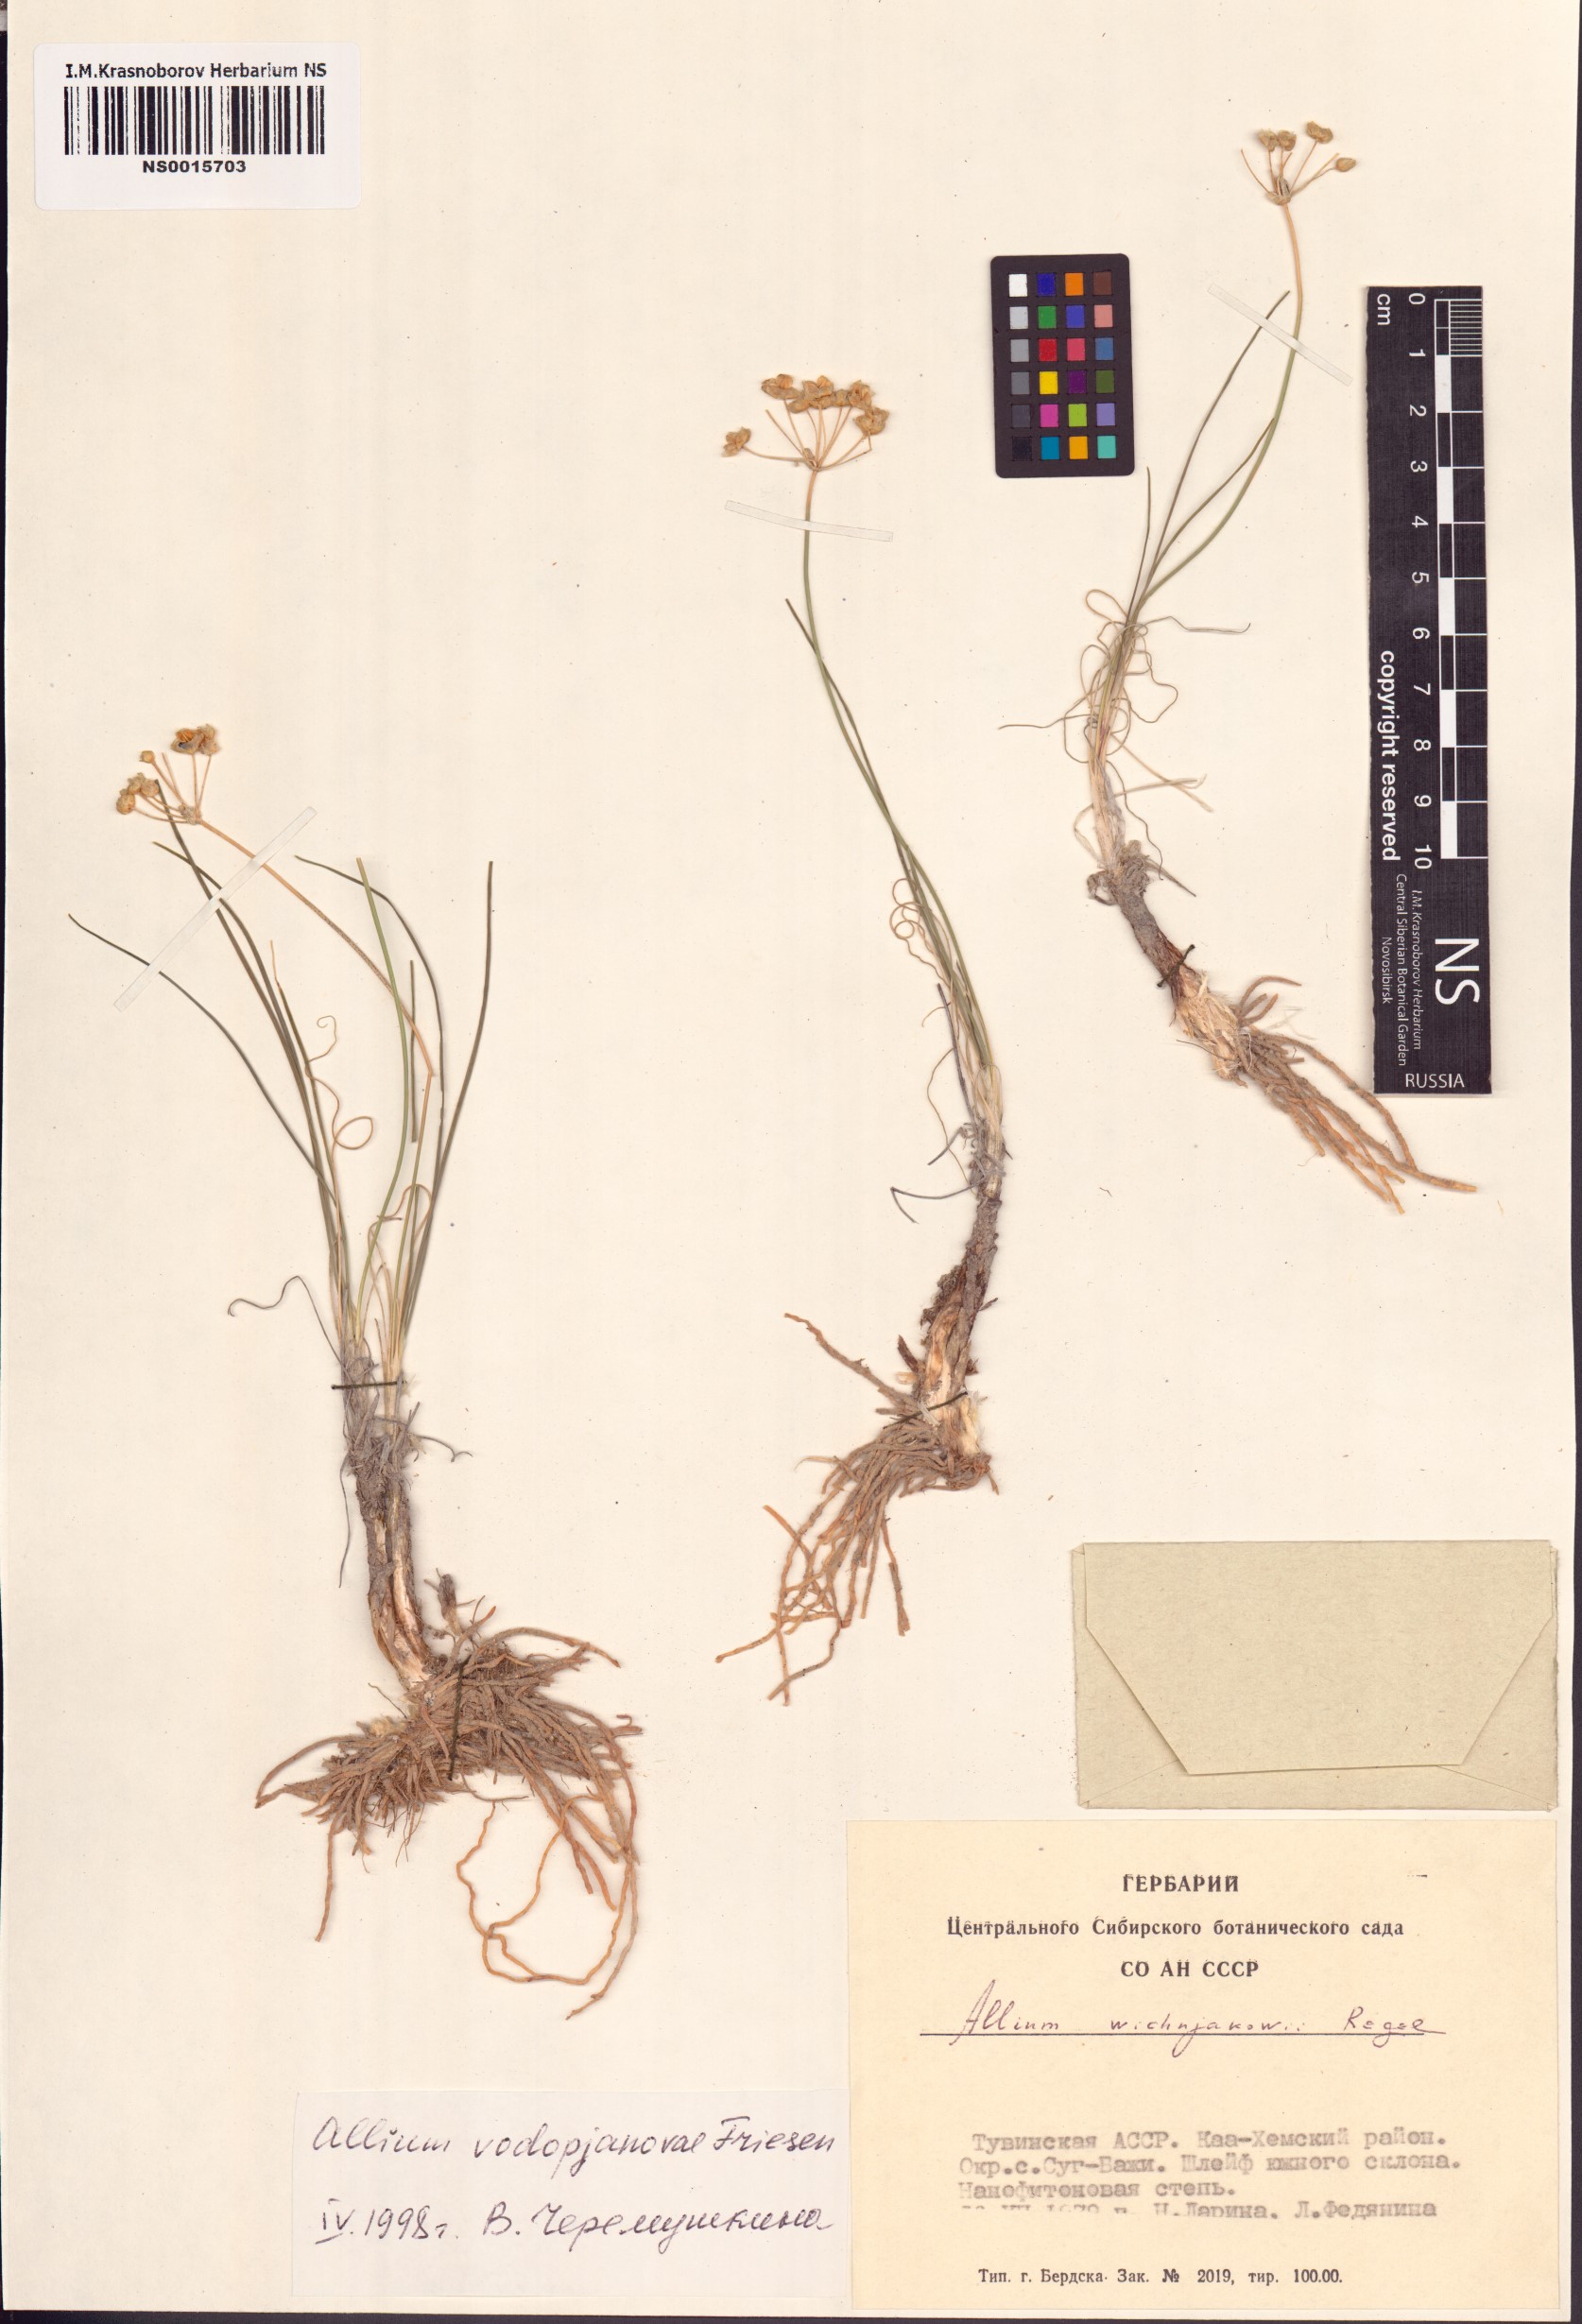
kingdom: Plantae
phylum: Tracheophyta
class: Liliopsida
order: Asparagales
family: Amaryllidaceae
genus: Allium
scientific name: Allium vodopjanovae
